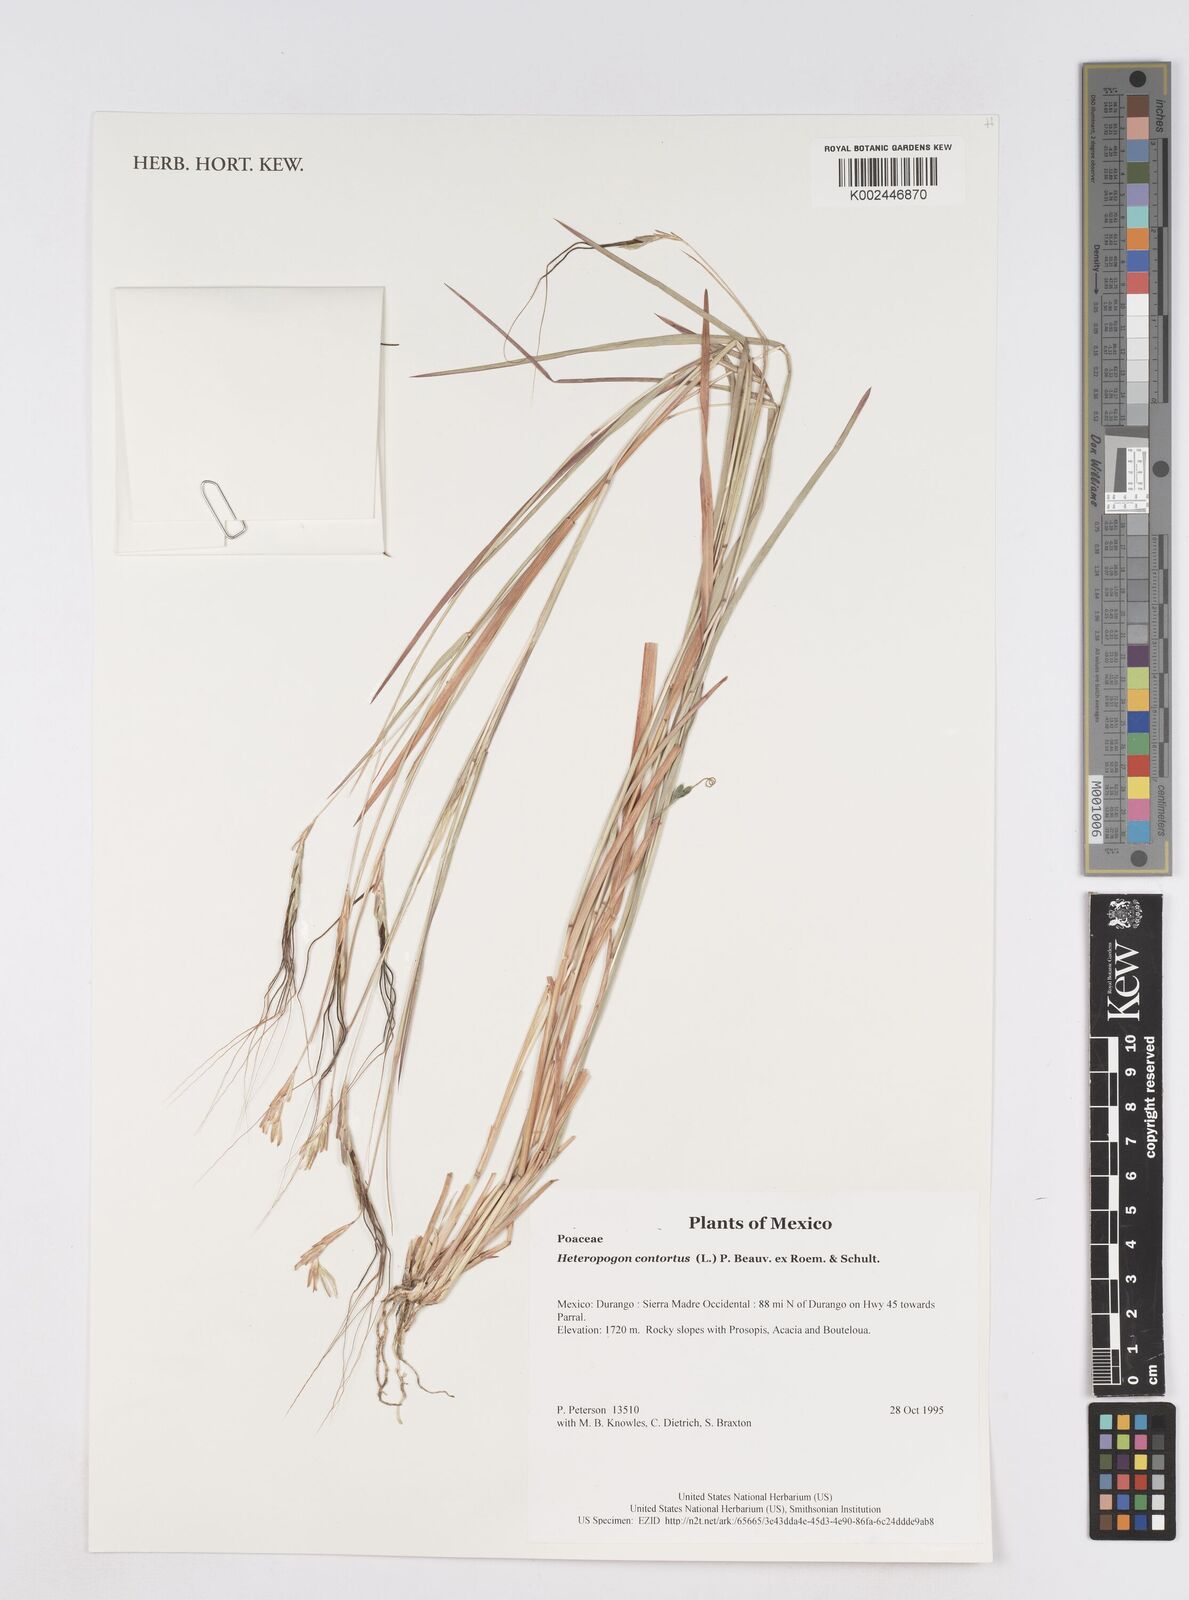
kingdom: Plantae
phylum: Tracheophyta
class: Liliopsida
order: Poales
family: Poaceae
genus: Heteropogon
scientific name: Heteropogon contortus
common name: Tanglehead
